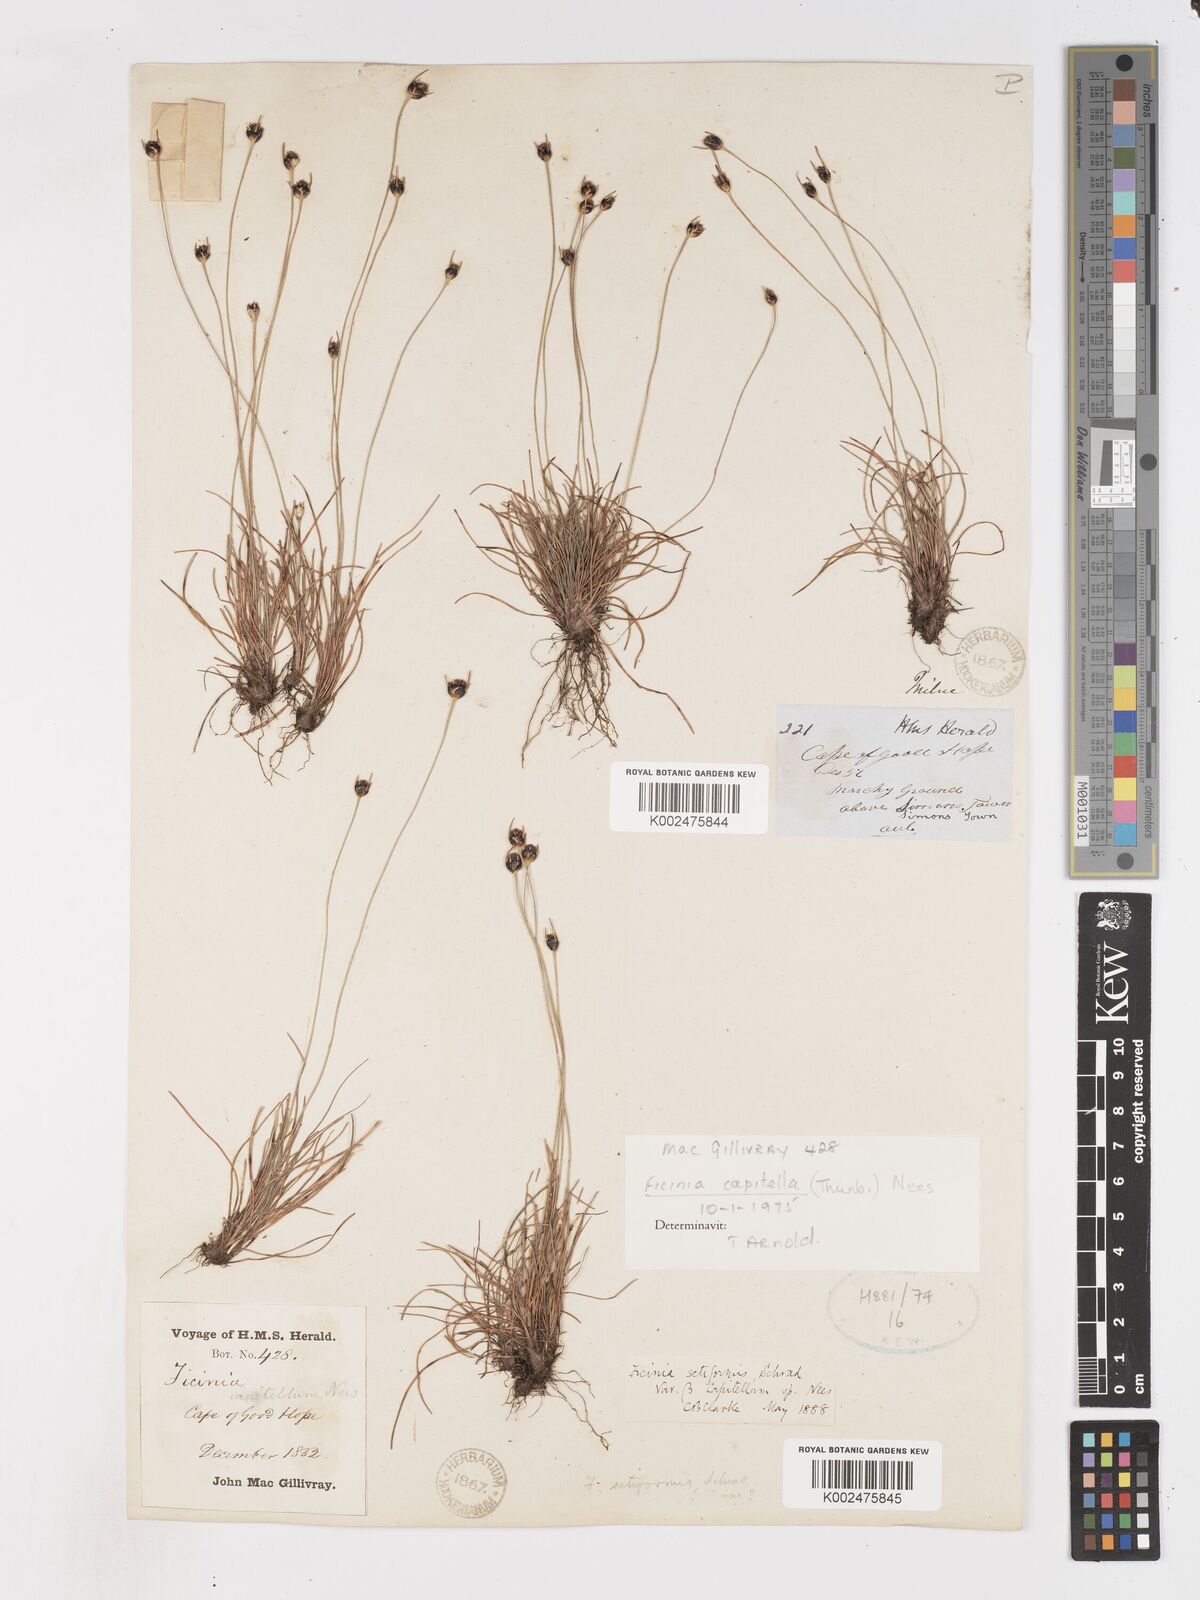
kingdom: Plantae
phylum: Tracheophyta
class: Liliopsida
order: Poales
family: Cyperaceae
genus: Ficinia
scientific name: Ficinia capitella
